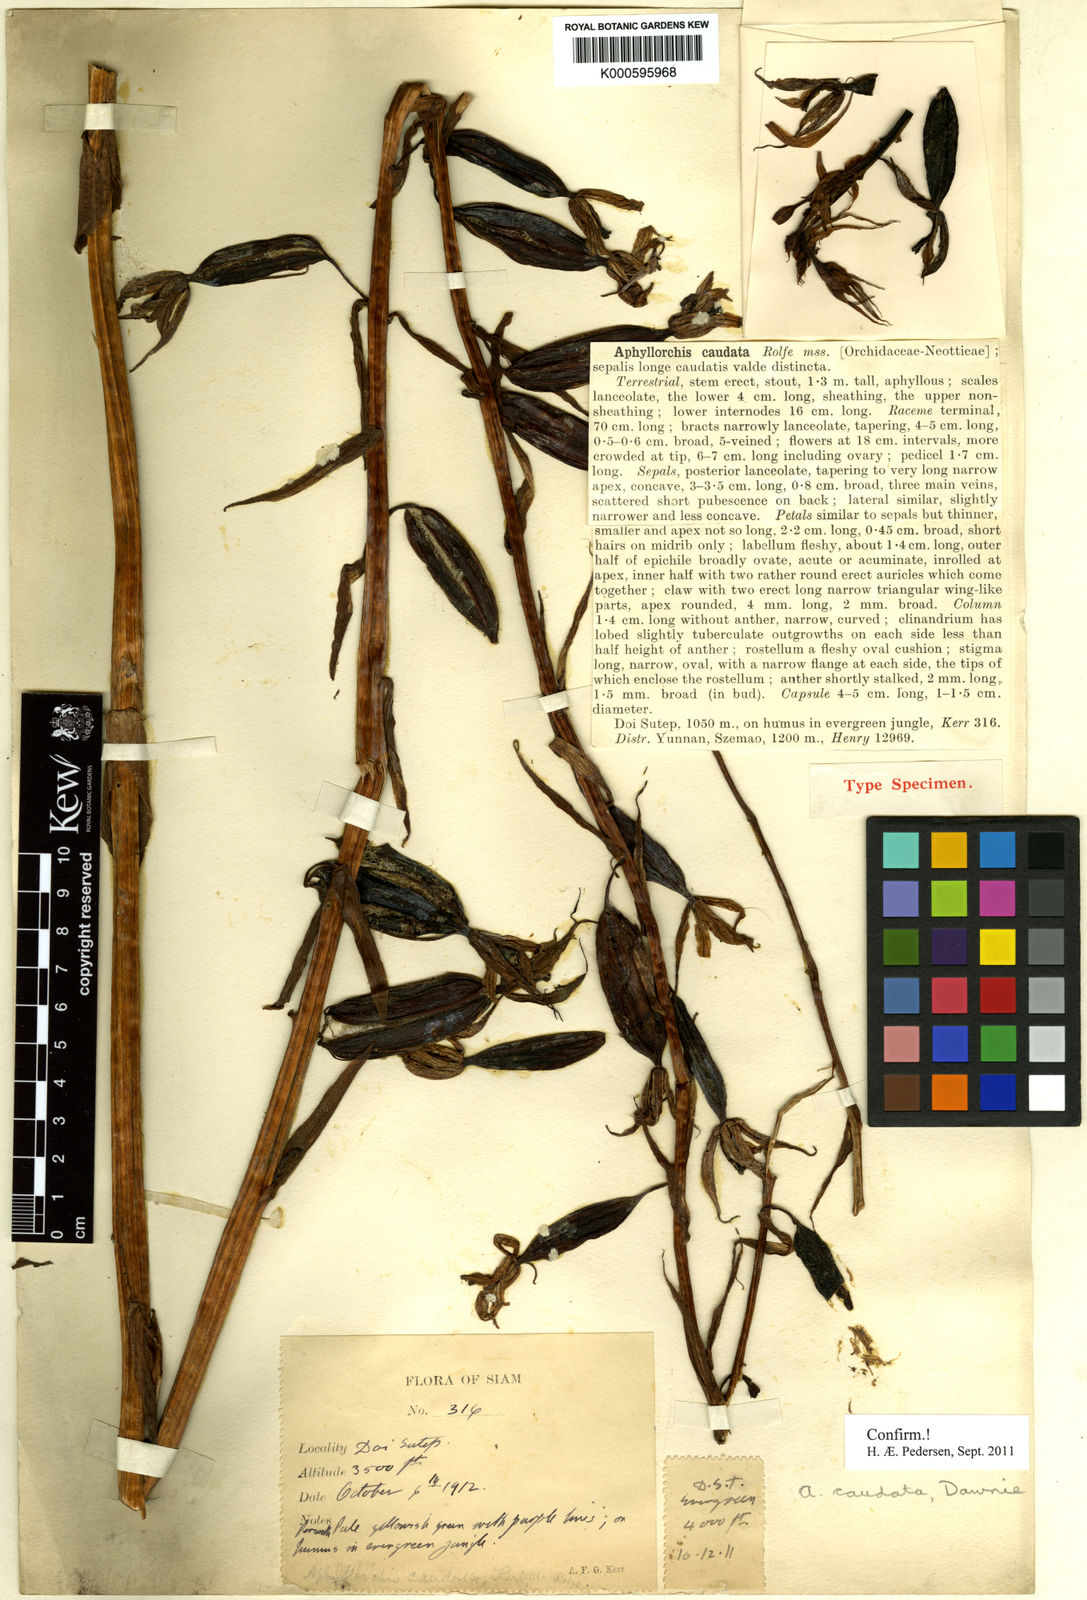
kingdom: Plantae
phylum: Tracheophyta
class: Liliopsida
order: Asparagales
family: Orchidaceae
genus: Aphyllorchis
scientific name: Aphyllorchis caudata
